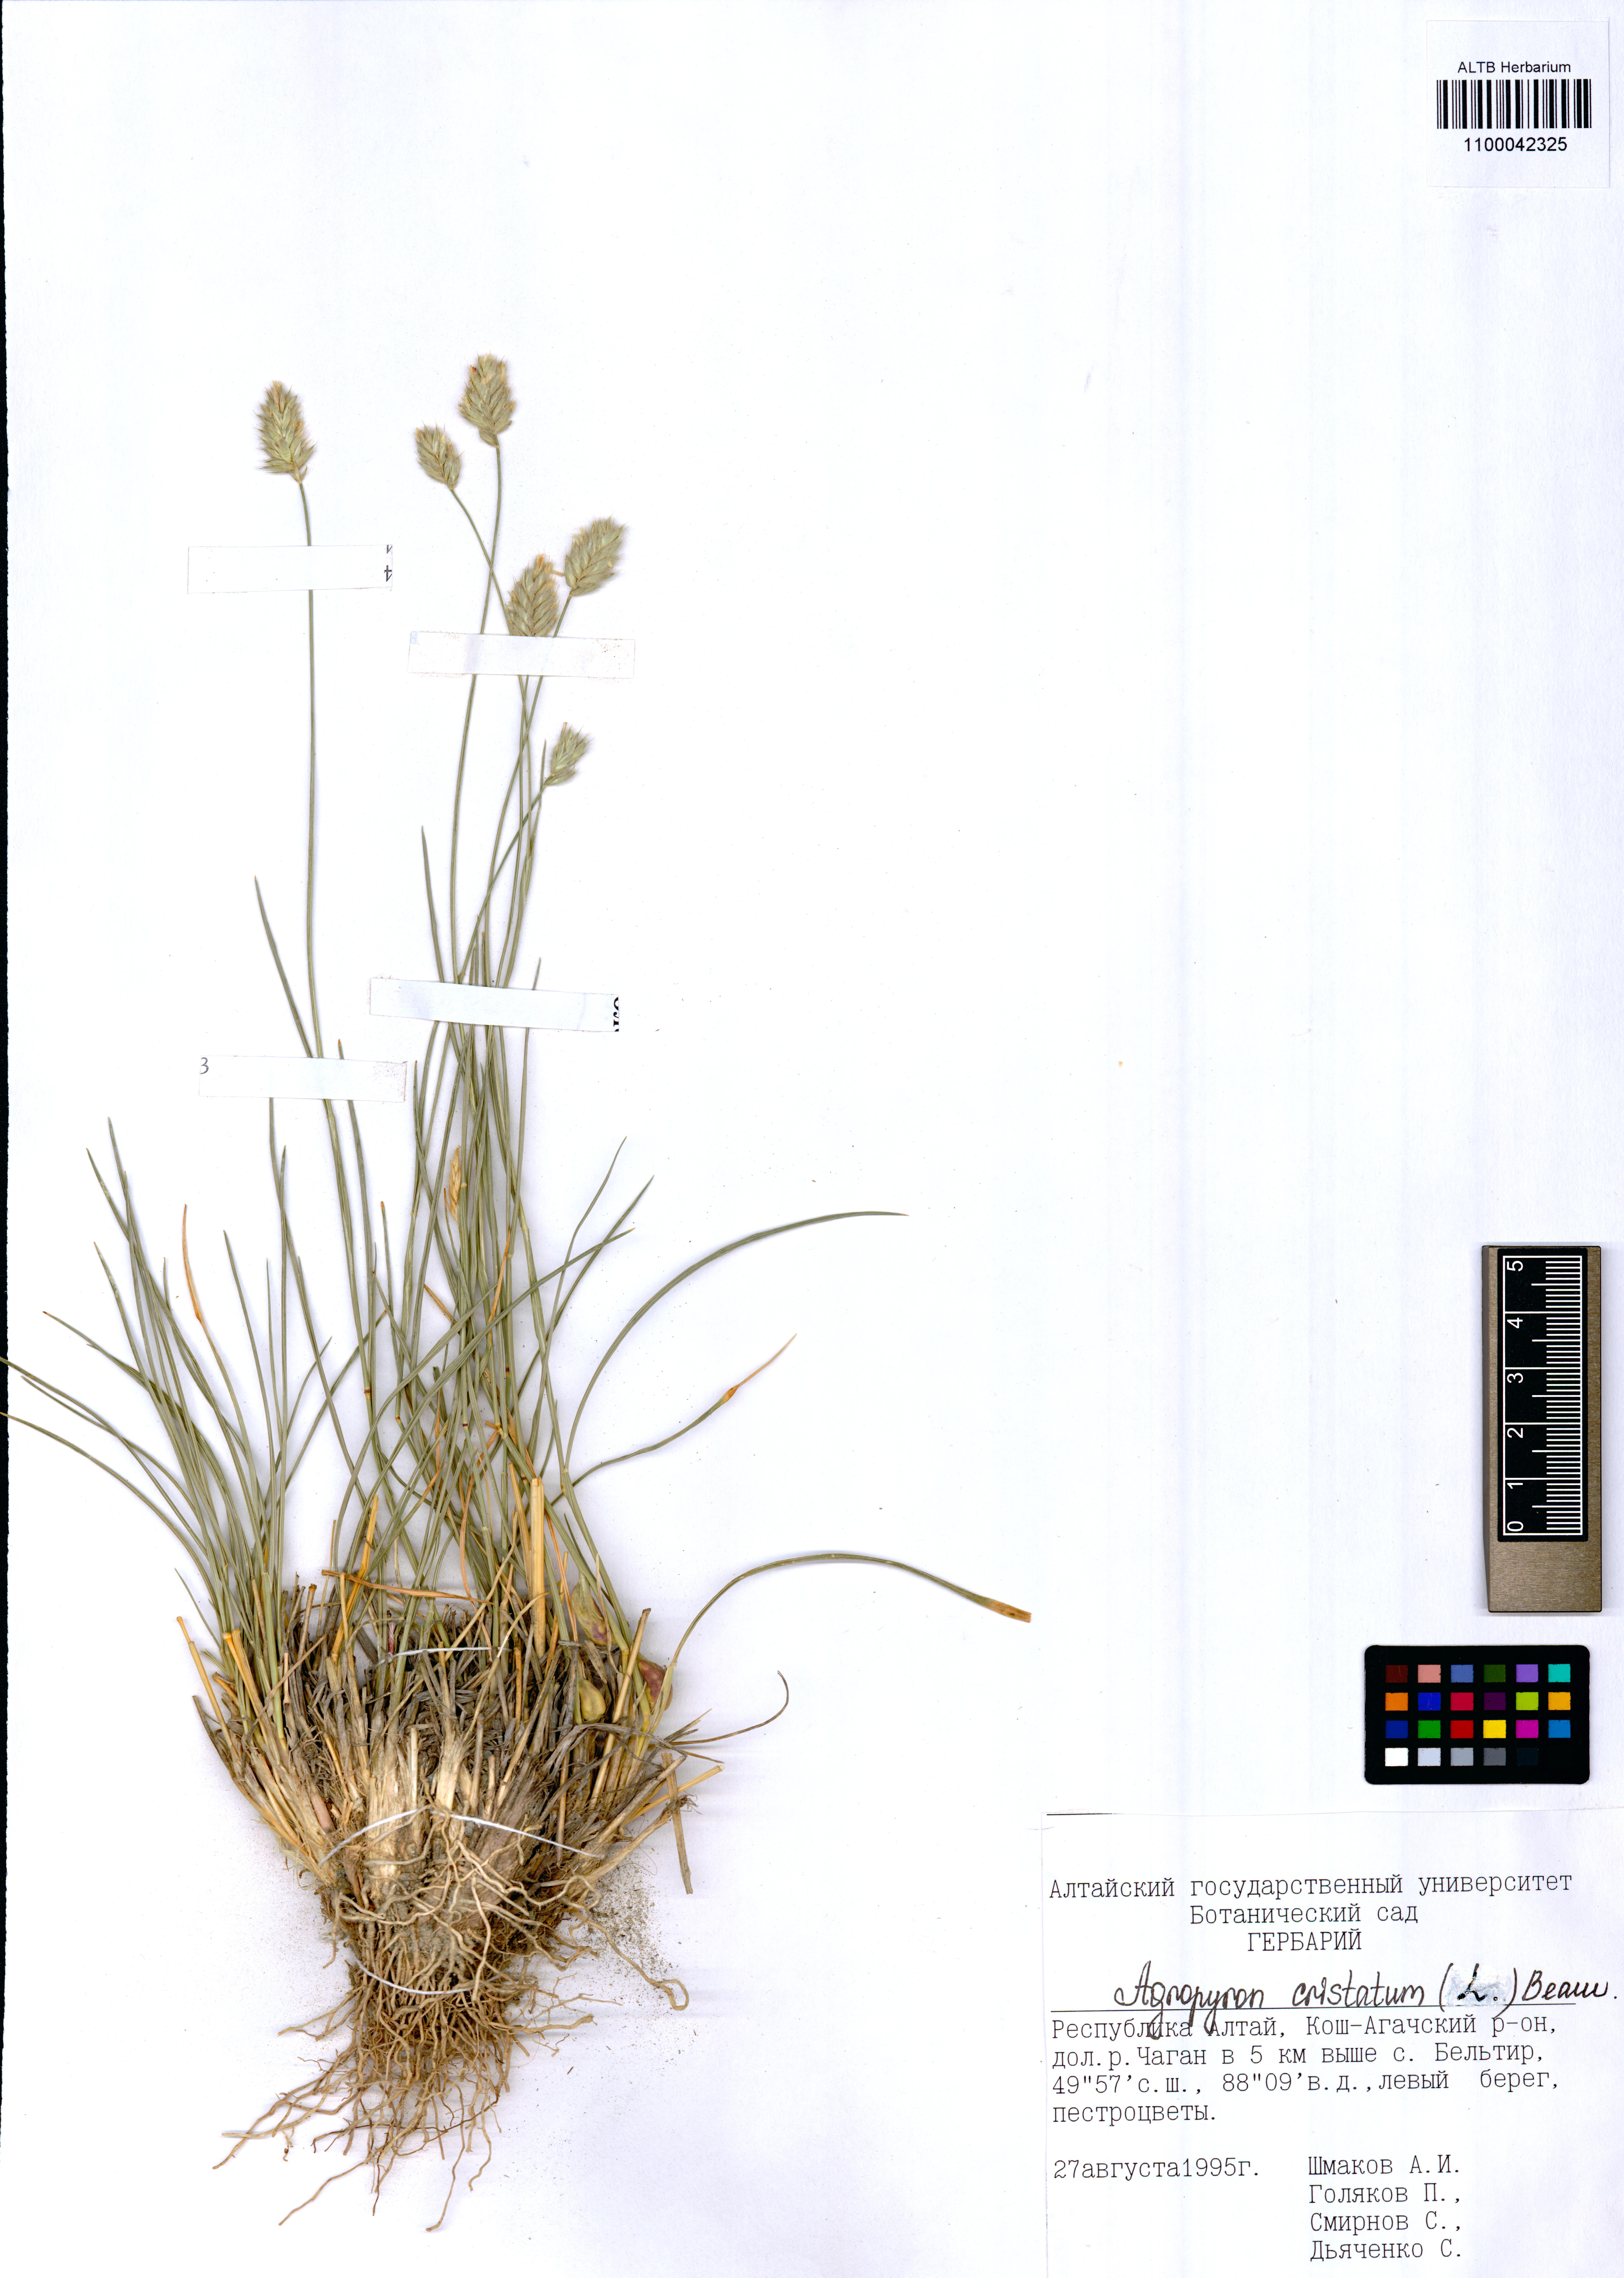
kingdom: Plantae
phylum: Tracheophyta
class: Liliopsida
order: Poales
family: Poaceae
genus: Agropyron
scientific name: Agropyron cristatum
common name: Crested wheatgrass
